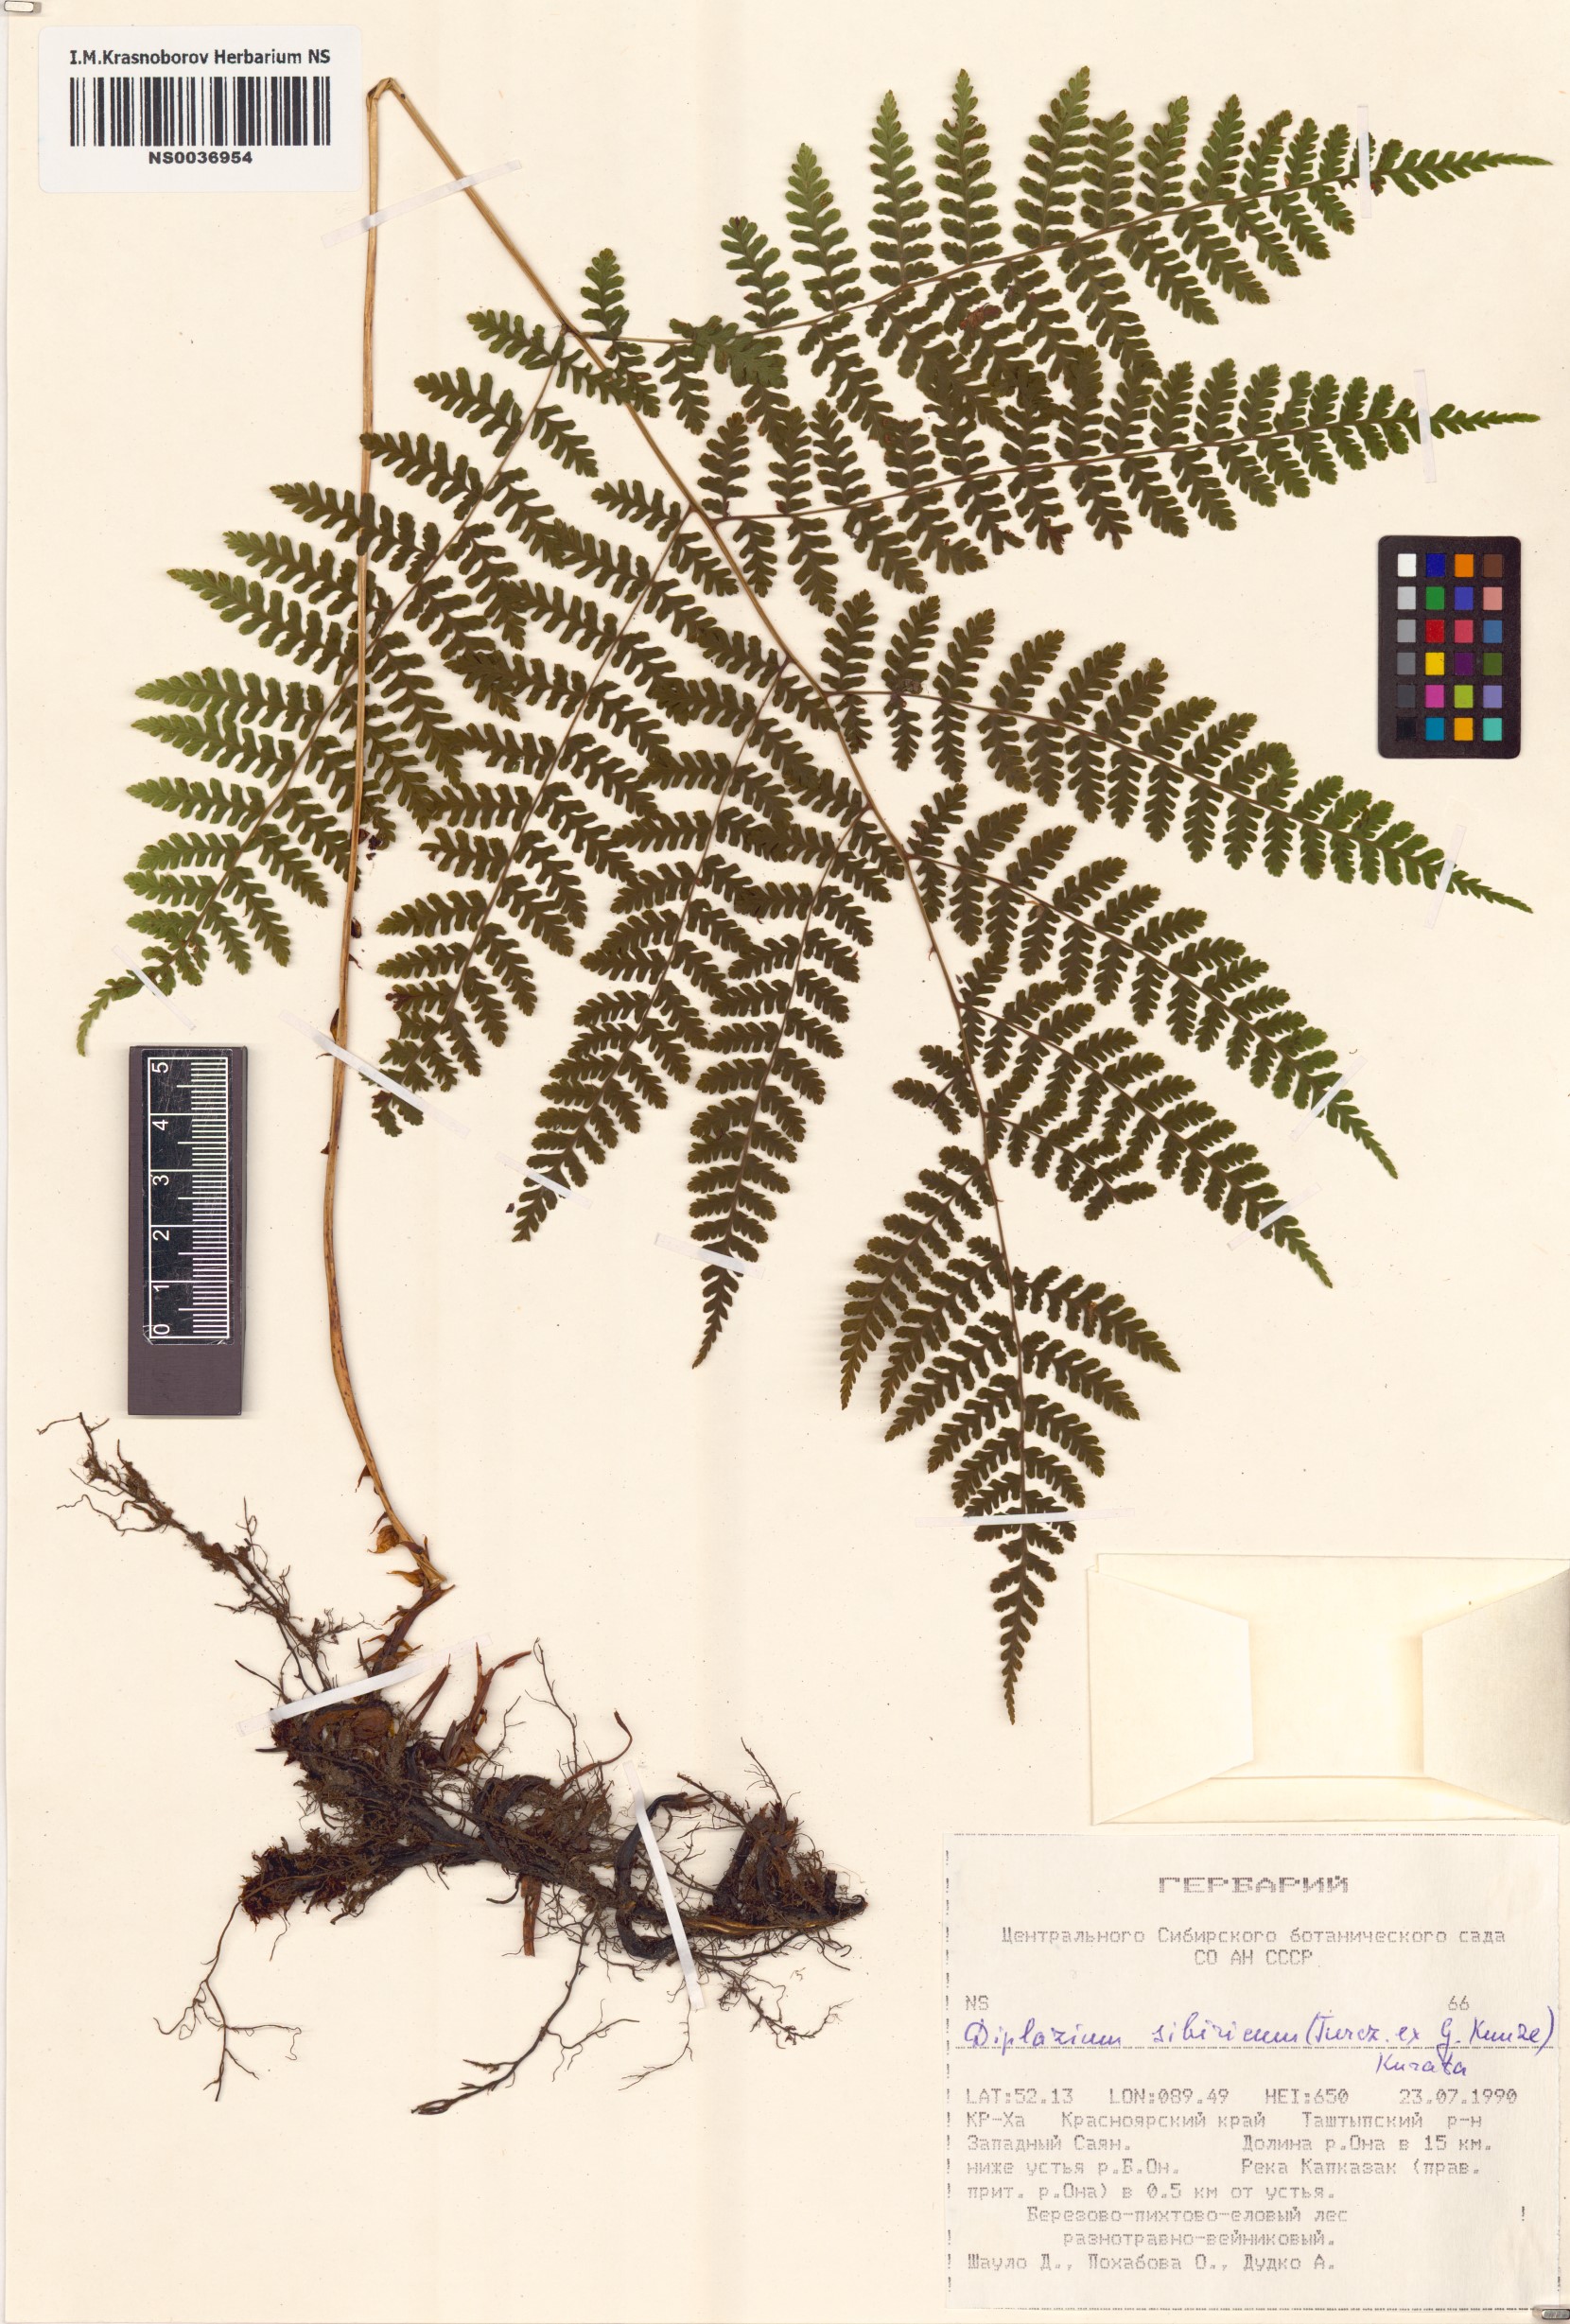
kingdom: Plantae
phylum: Tracheophyta
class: Polypodiopsida
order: Polypodiales
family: Athyriaceae
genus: Diplazium
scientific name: Diplazium sibiricum
